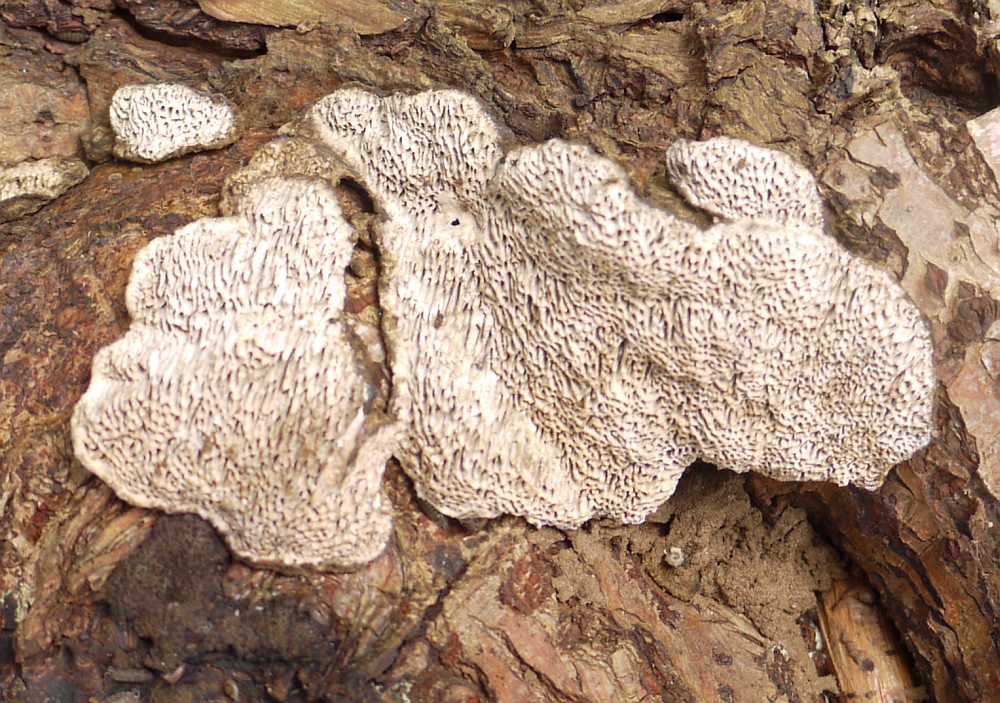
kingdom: Fungi
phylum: Basidiomycota
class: Agaricomycetes
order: Polyporales
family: Polyporaceae
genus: Podofomes
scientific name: Podofomes mollis
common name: blød begporesvamp
